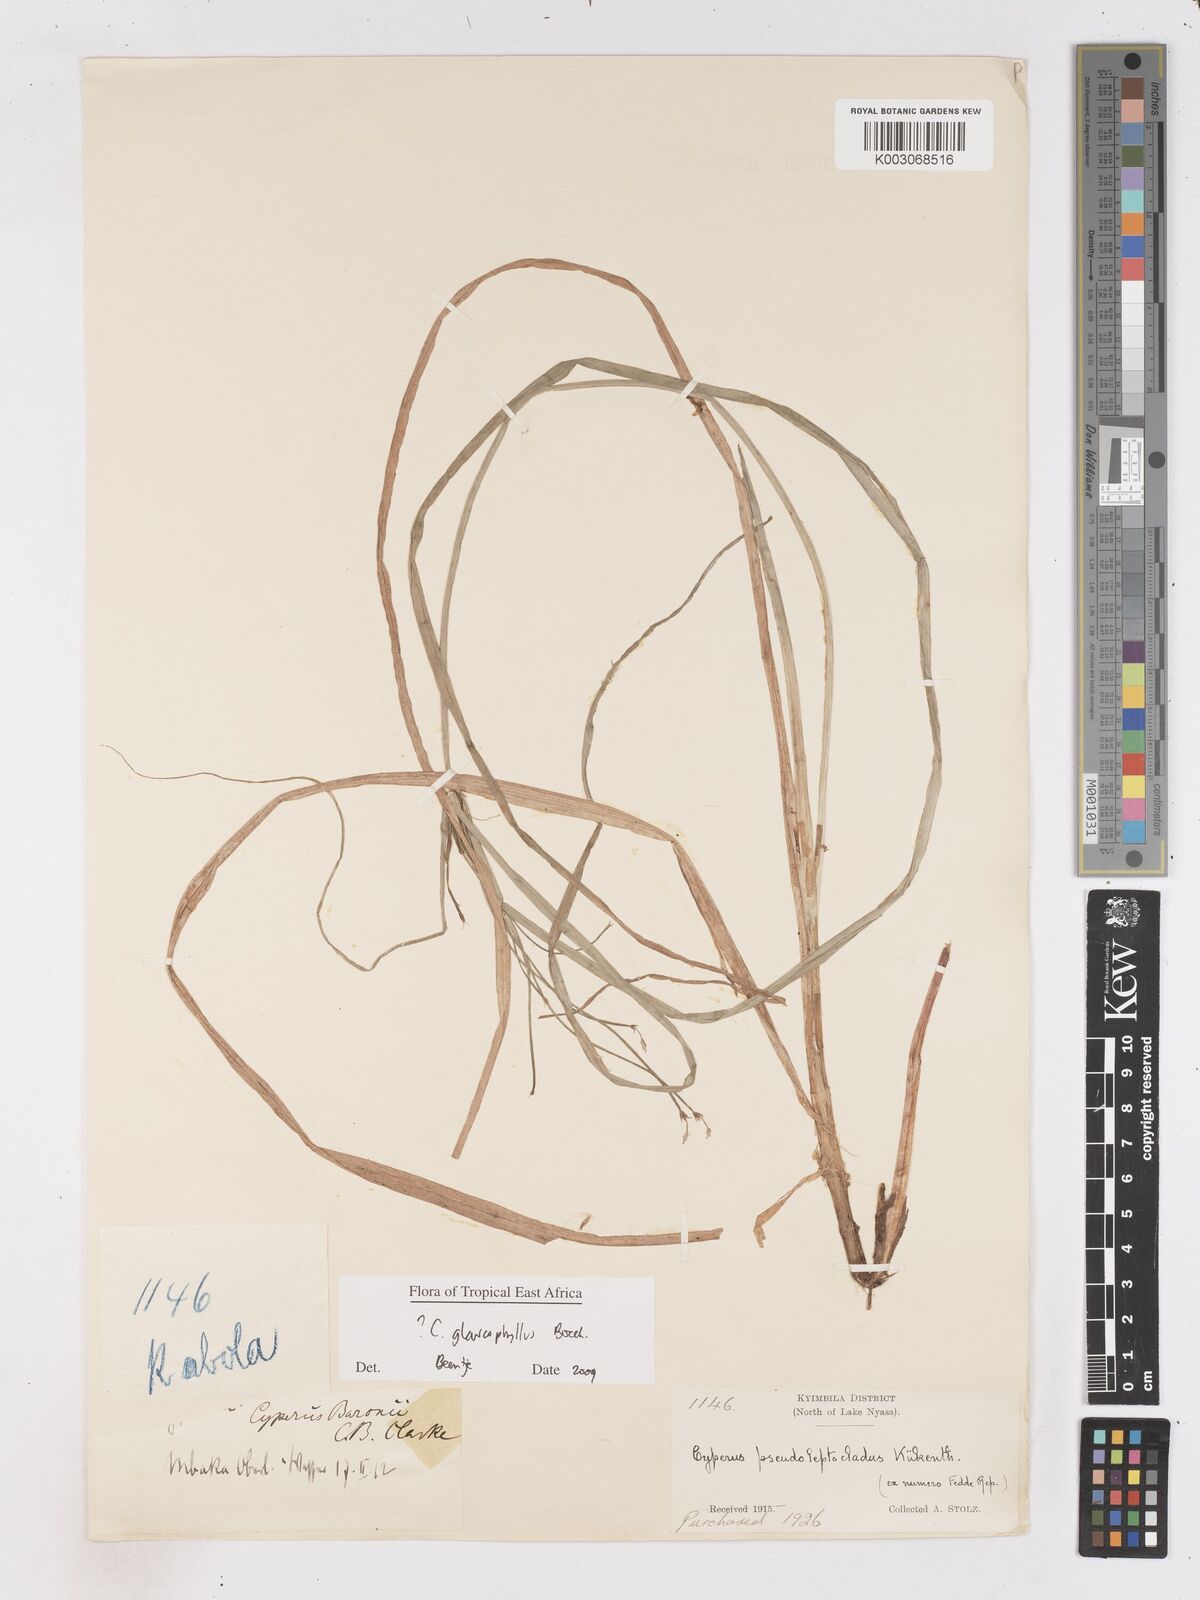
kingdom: Plantae
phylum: Tracheophyta
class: Liliopsida
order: Poales
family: Cyperaceae
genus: Cyperus
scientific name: Cyperus glaucophyllus
